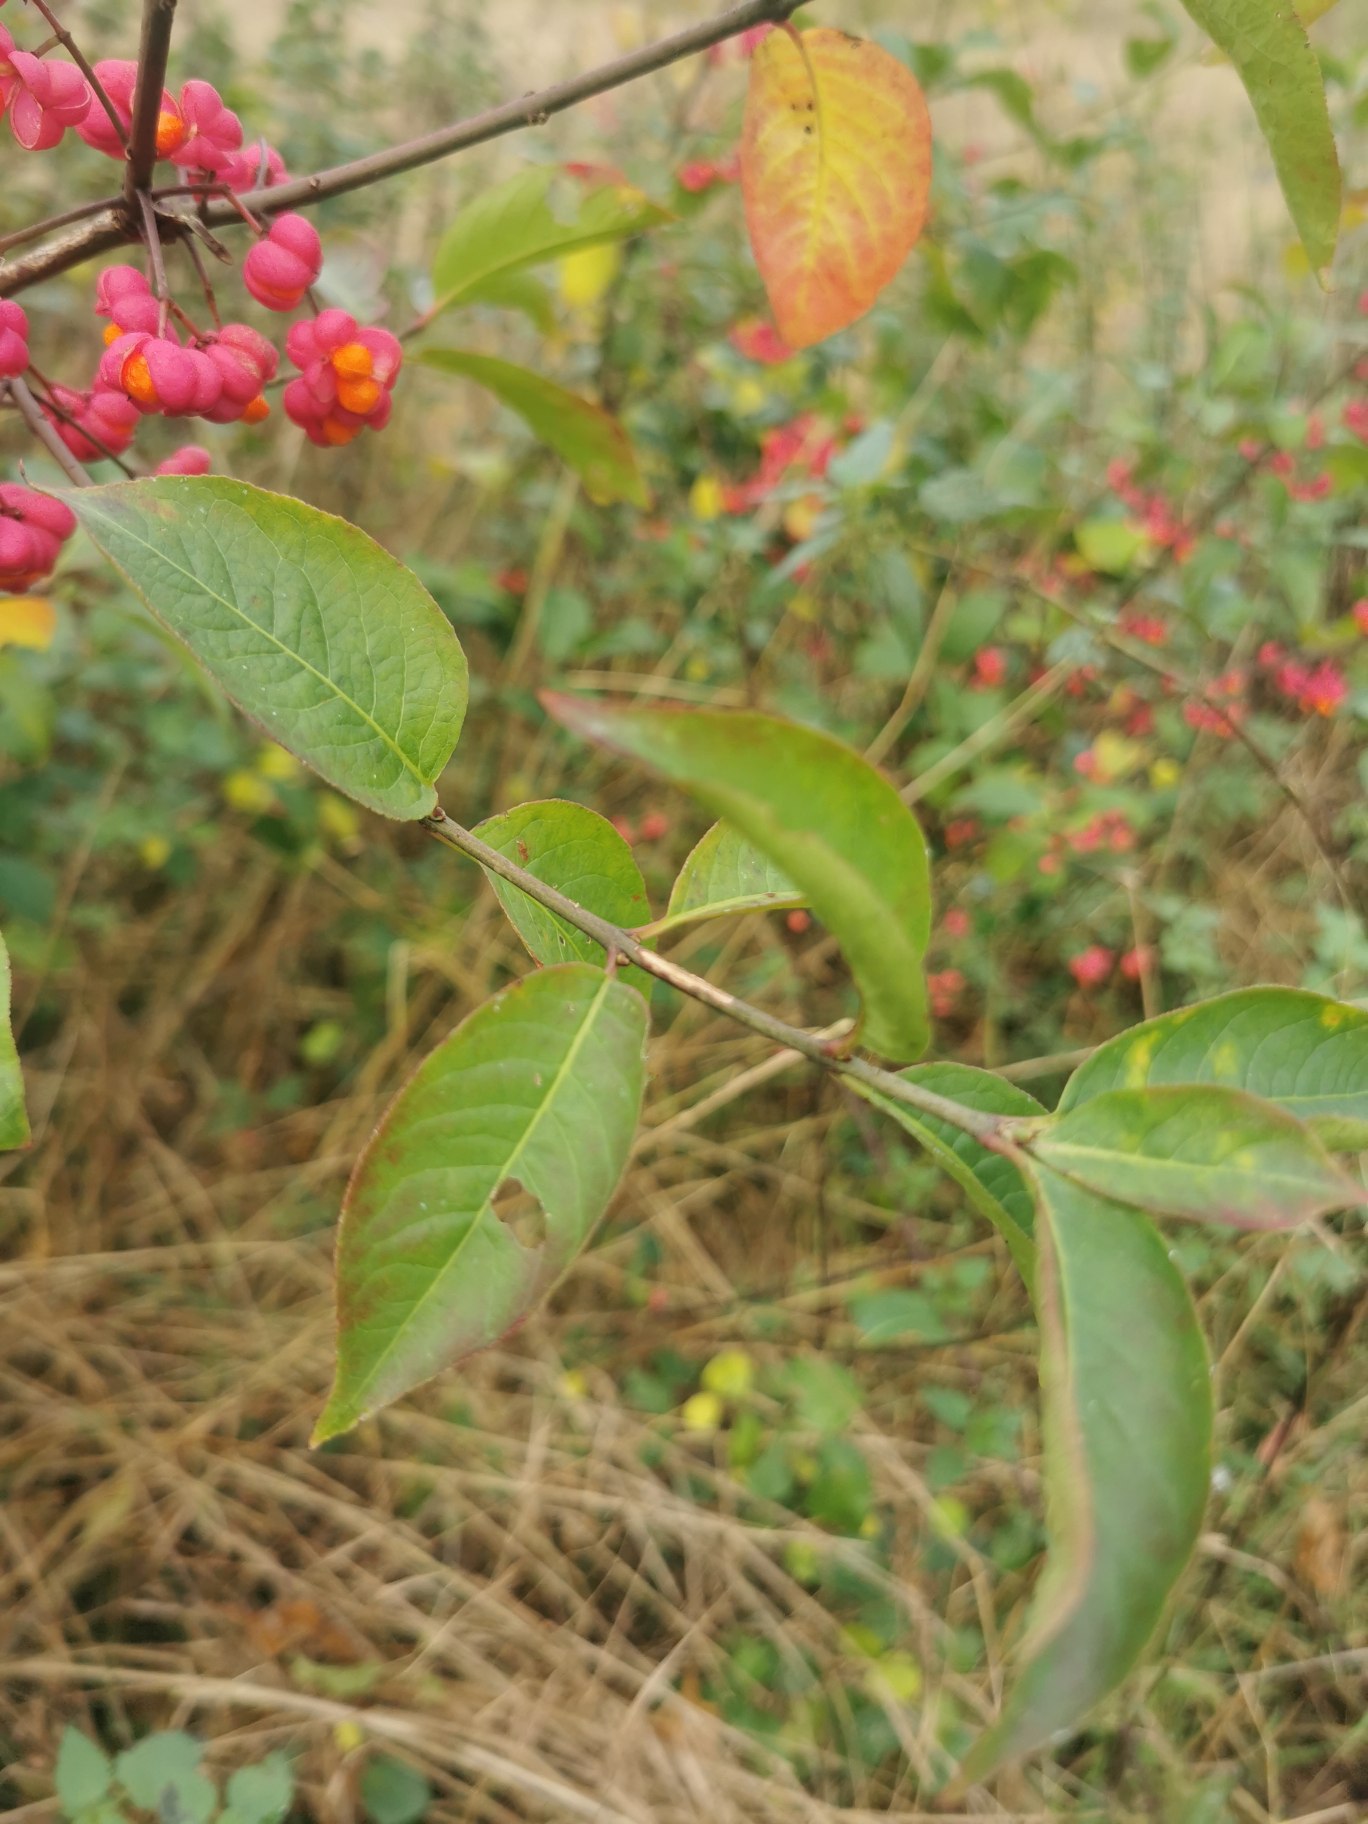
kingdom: Plantae
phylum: Tracheophyta
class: Magnoliopsida
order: Celastrales
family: Celastraceae
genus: Euonymus
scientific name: Euonymus europaeus
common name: Benved
